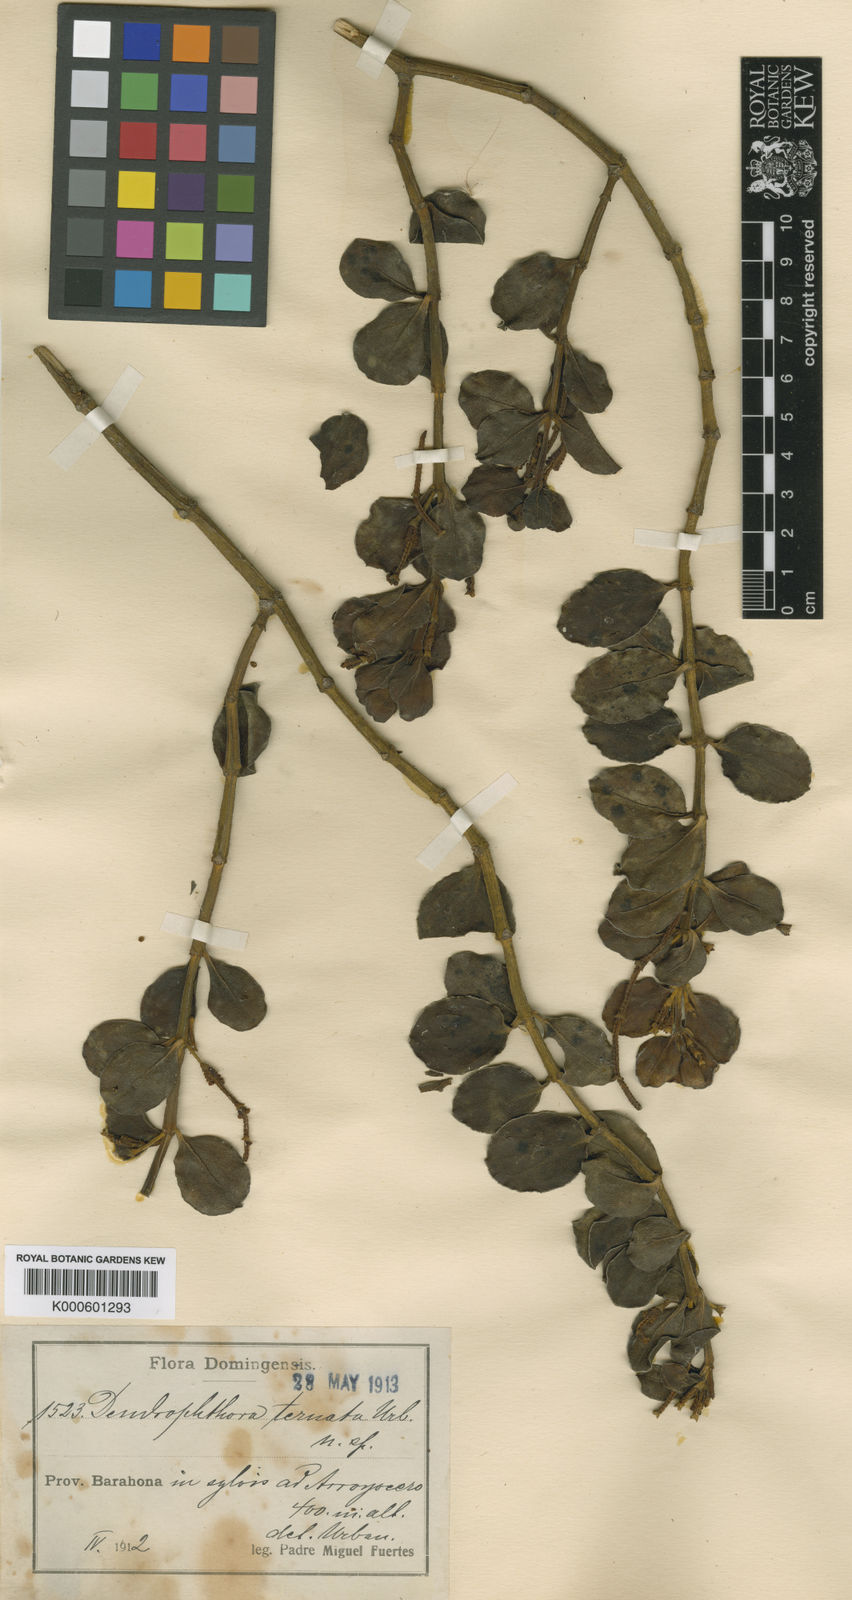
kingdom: Plantae
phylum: Tracheophyta
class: Magnoliopsida
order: Santalales
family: Viscaceae
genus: Dendrophthora
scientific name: Dendrophthora ternata
